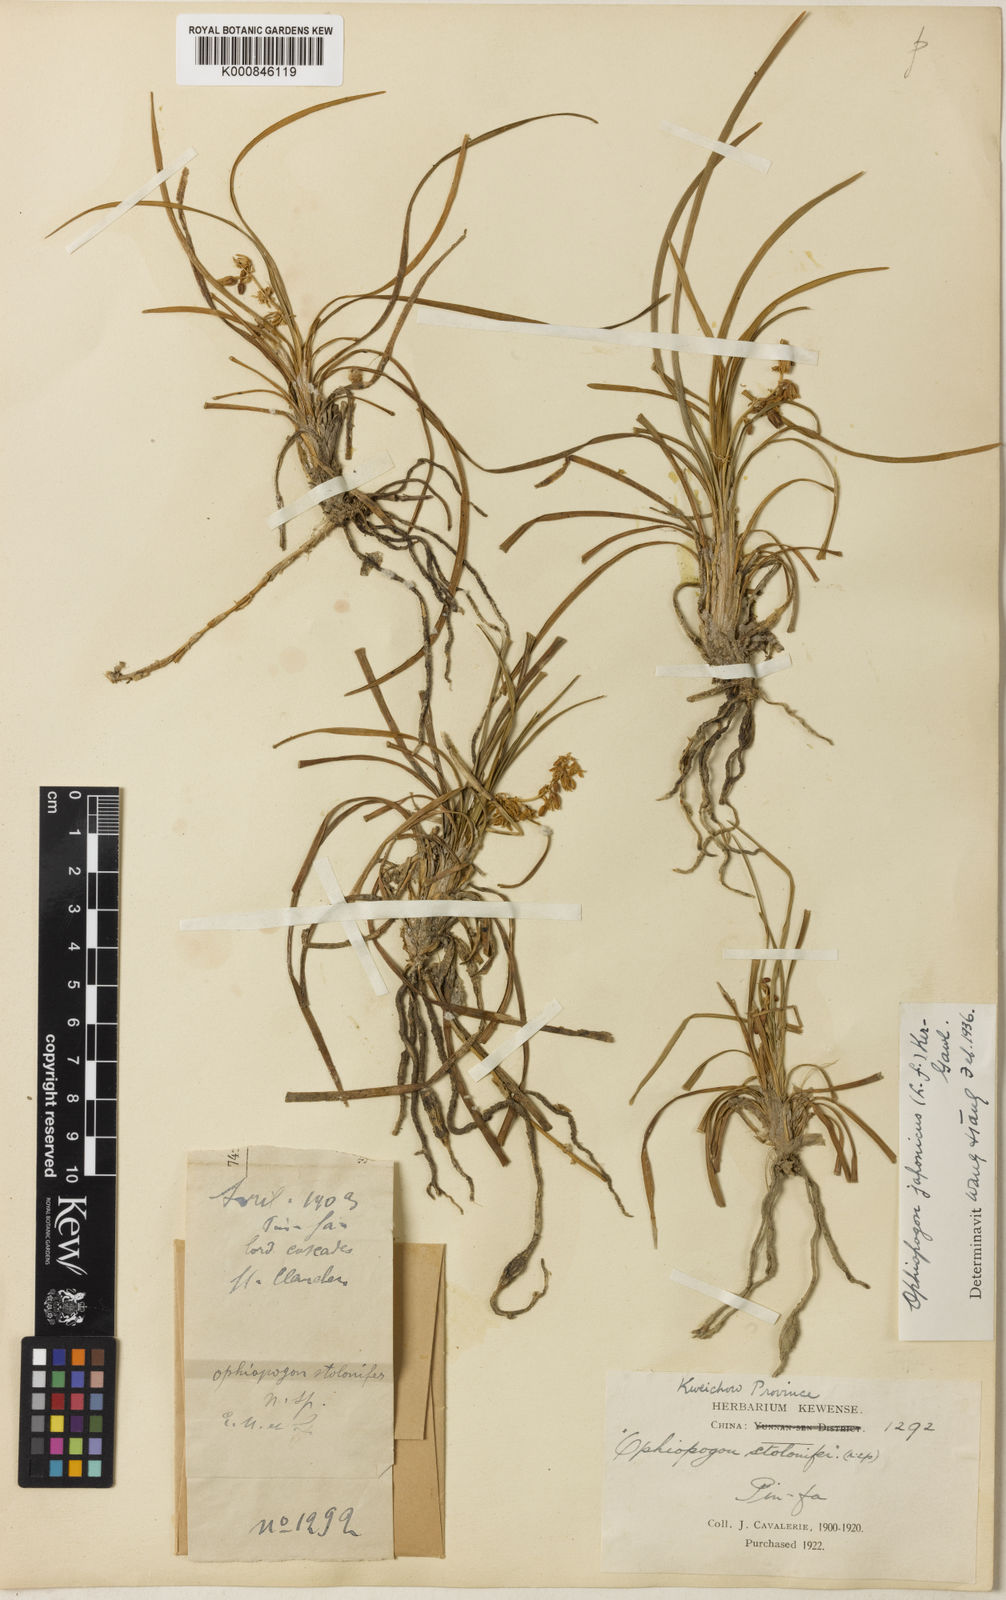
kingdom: Plantae
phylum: Tracheophyta
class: Liliopsida
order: Asparagales
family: Asparagaceae
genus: Ophiopogon
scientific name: Ophiopogon japonicus
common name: Dwarf lilyturf
